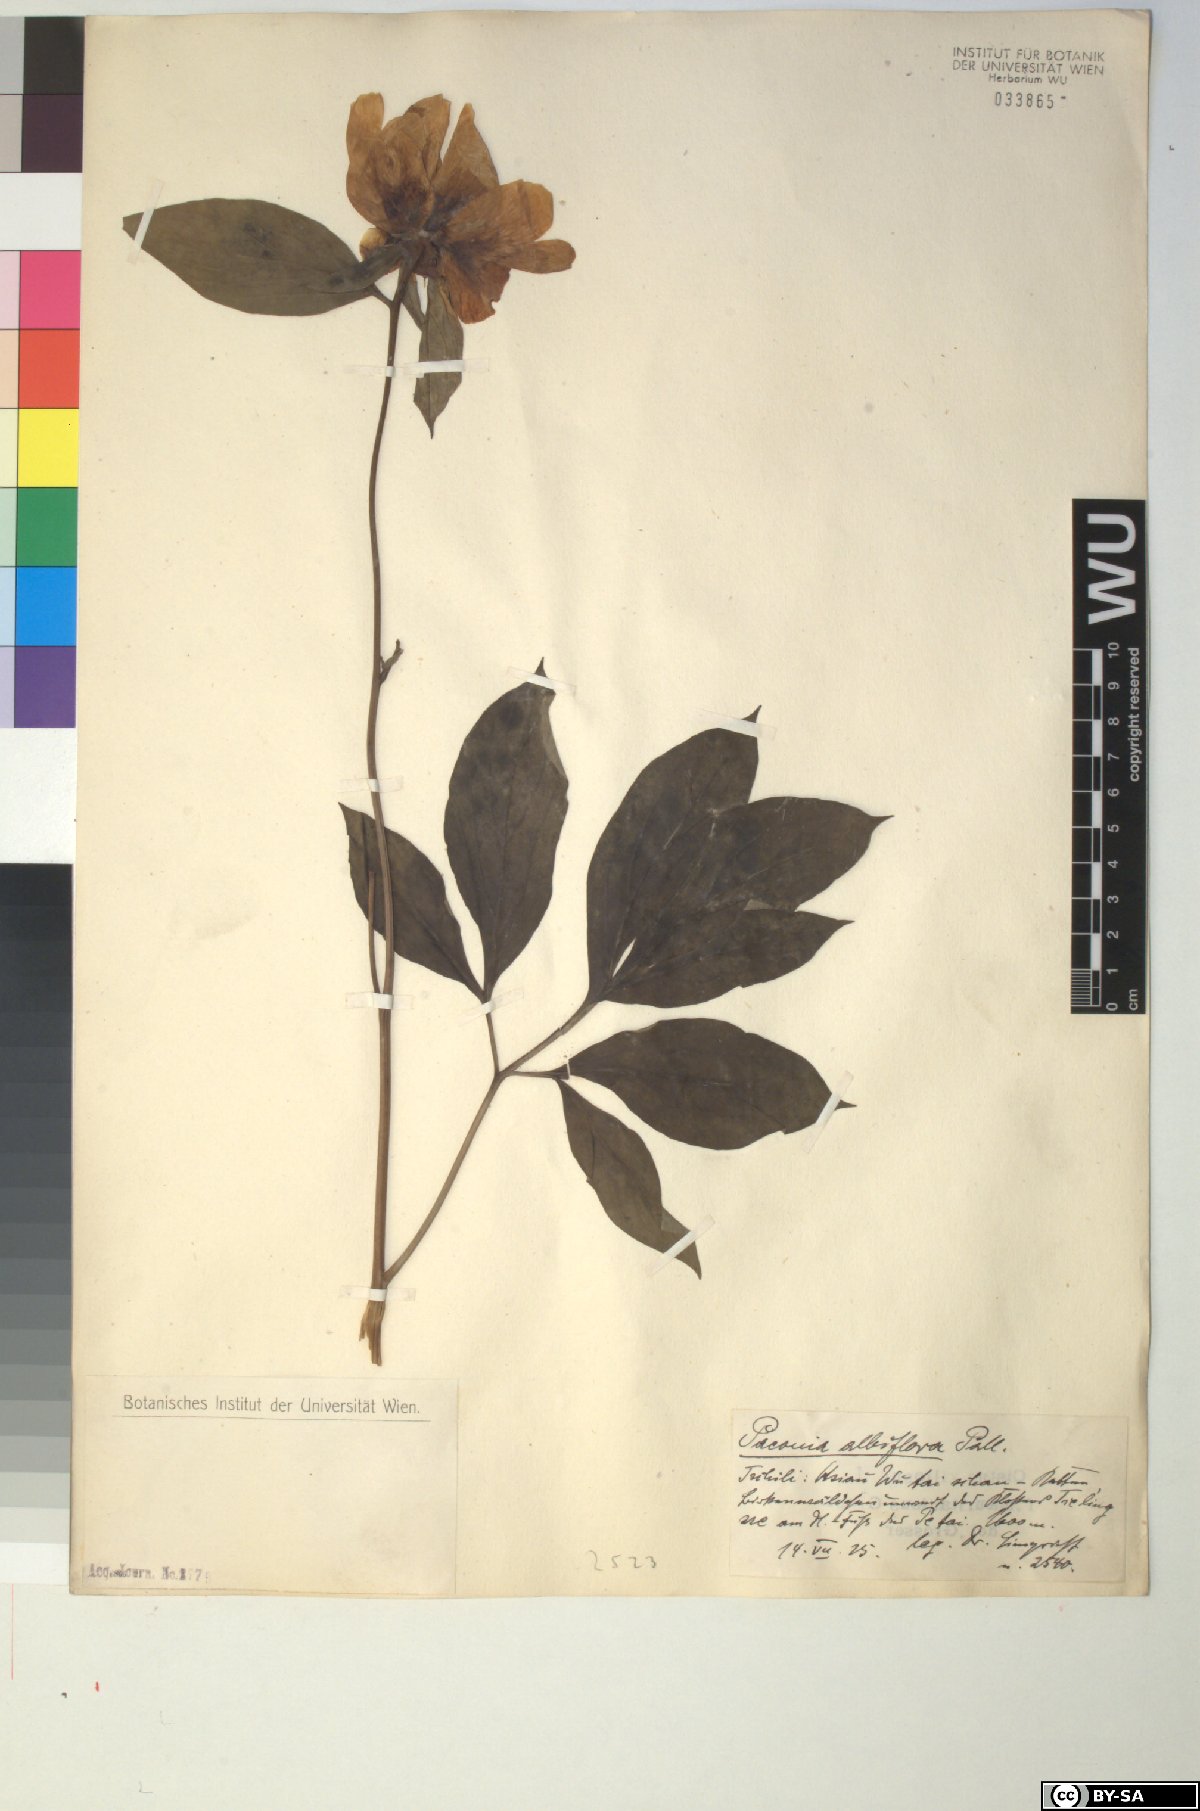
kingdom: Plantae
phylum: Tracheophyta
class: Magnoliopsida
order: Saxifragales
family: Paeoniaceae
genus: Paeonia
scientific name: Paeonia lactiflora
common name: Chinese peony
